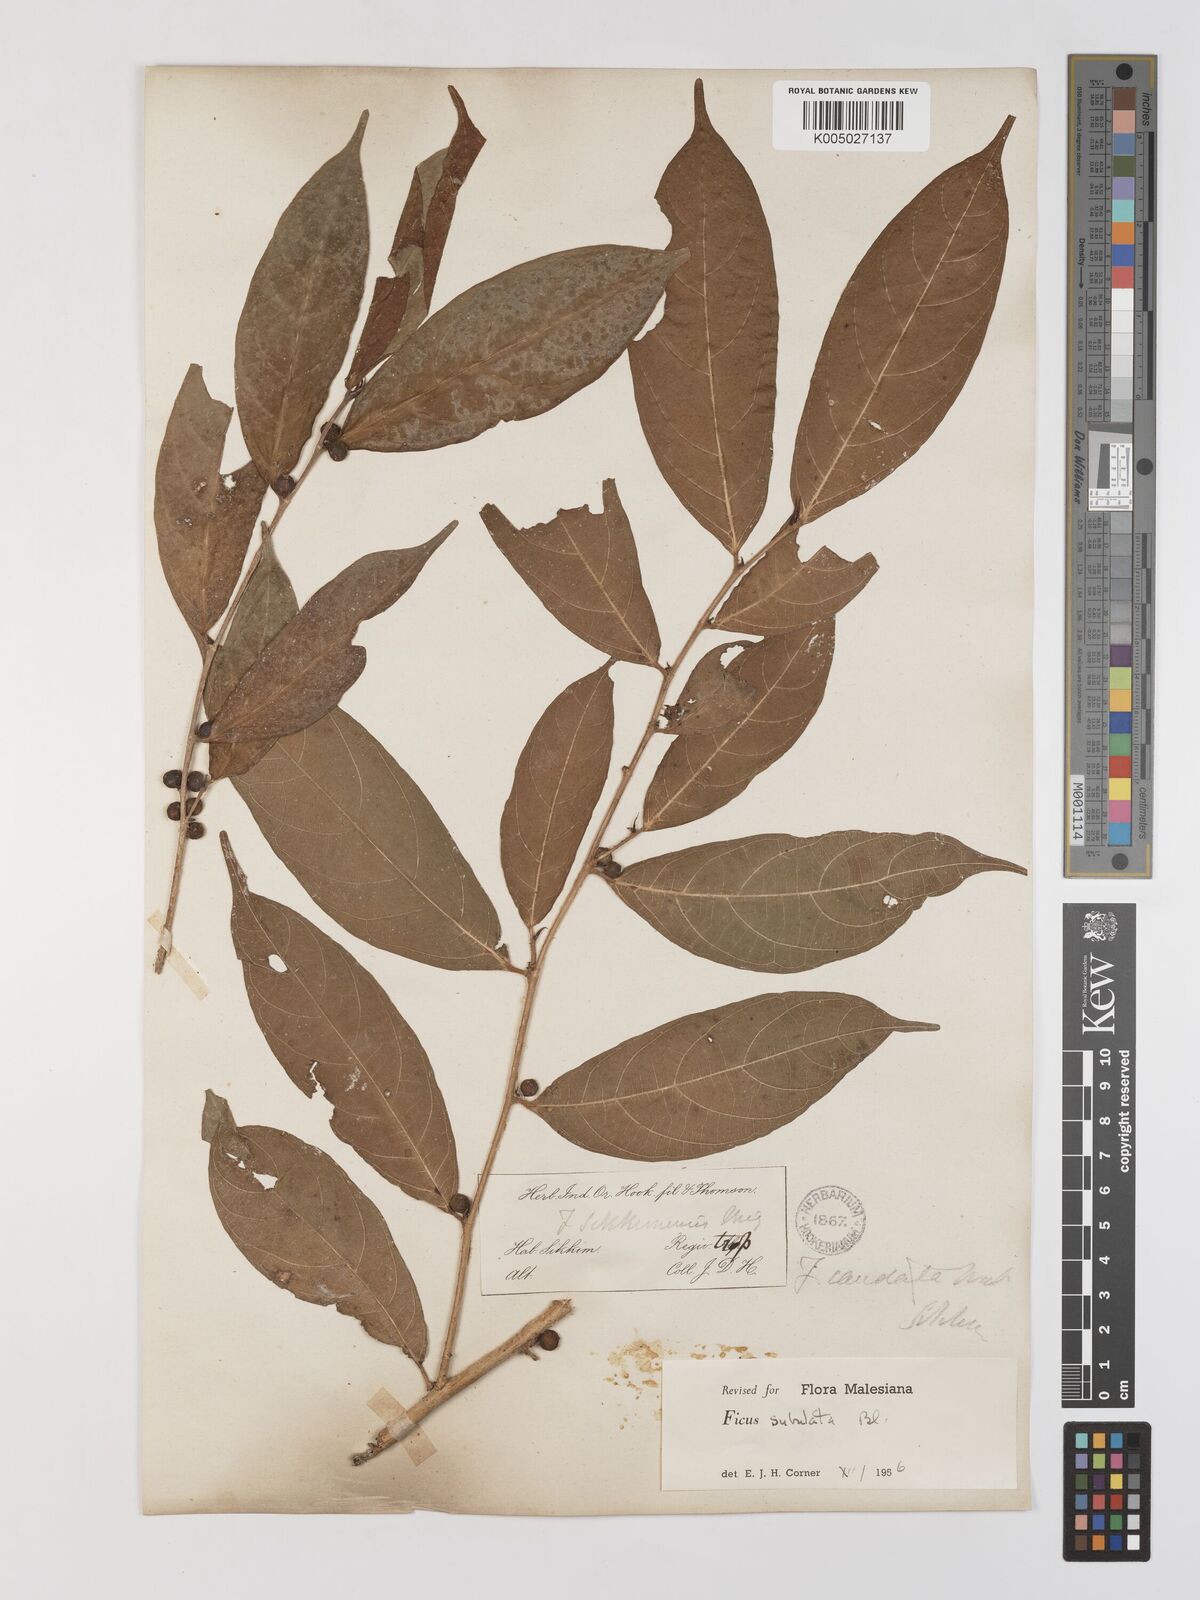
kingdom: Plantae
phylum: Tracheophyta
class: Magnoliopsida
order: Rosales
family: Moraceae
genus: Ficus
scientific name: Ficus subulata
